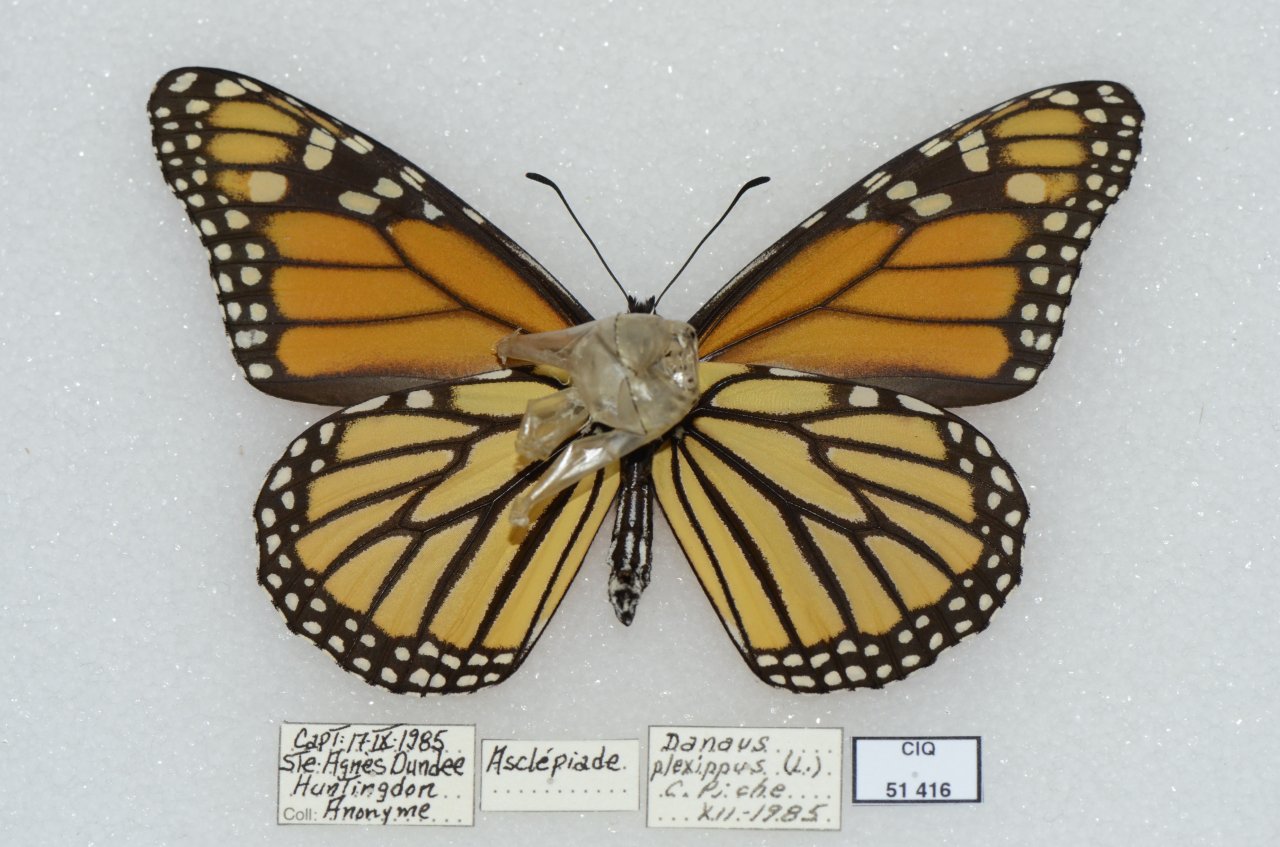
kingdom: Animalia
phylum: Arthropoda
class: Insecta
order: Lepidoptera
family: Nymphalidae
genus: Danaus
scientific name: Danaus plexippus
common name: Monarch
